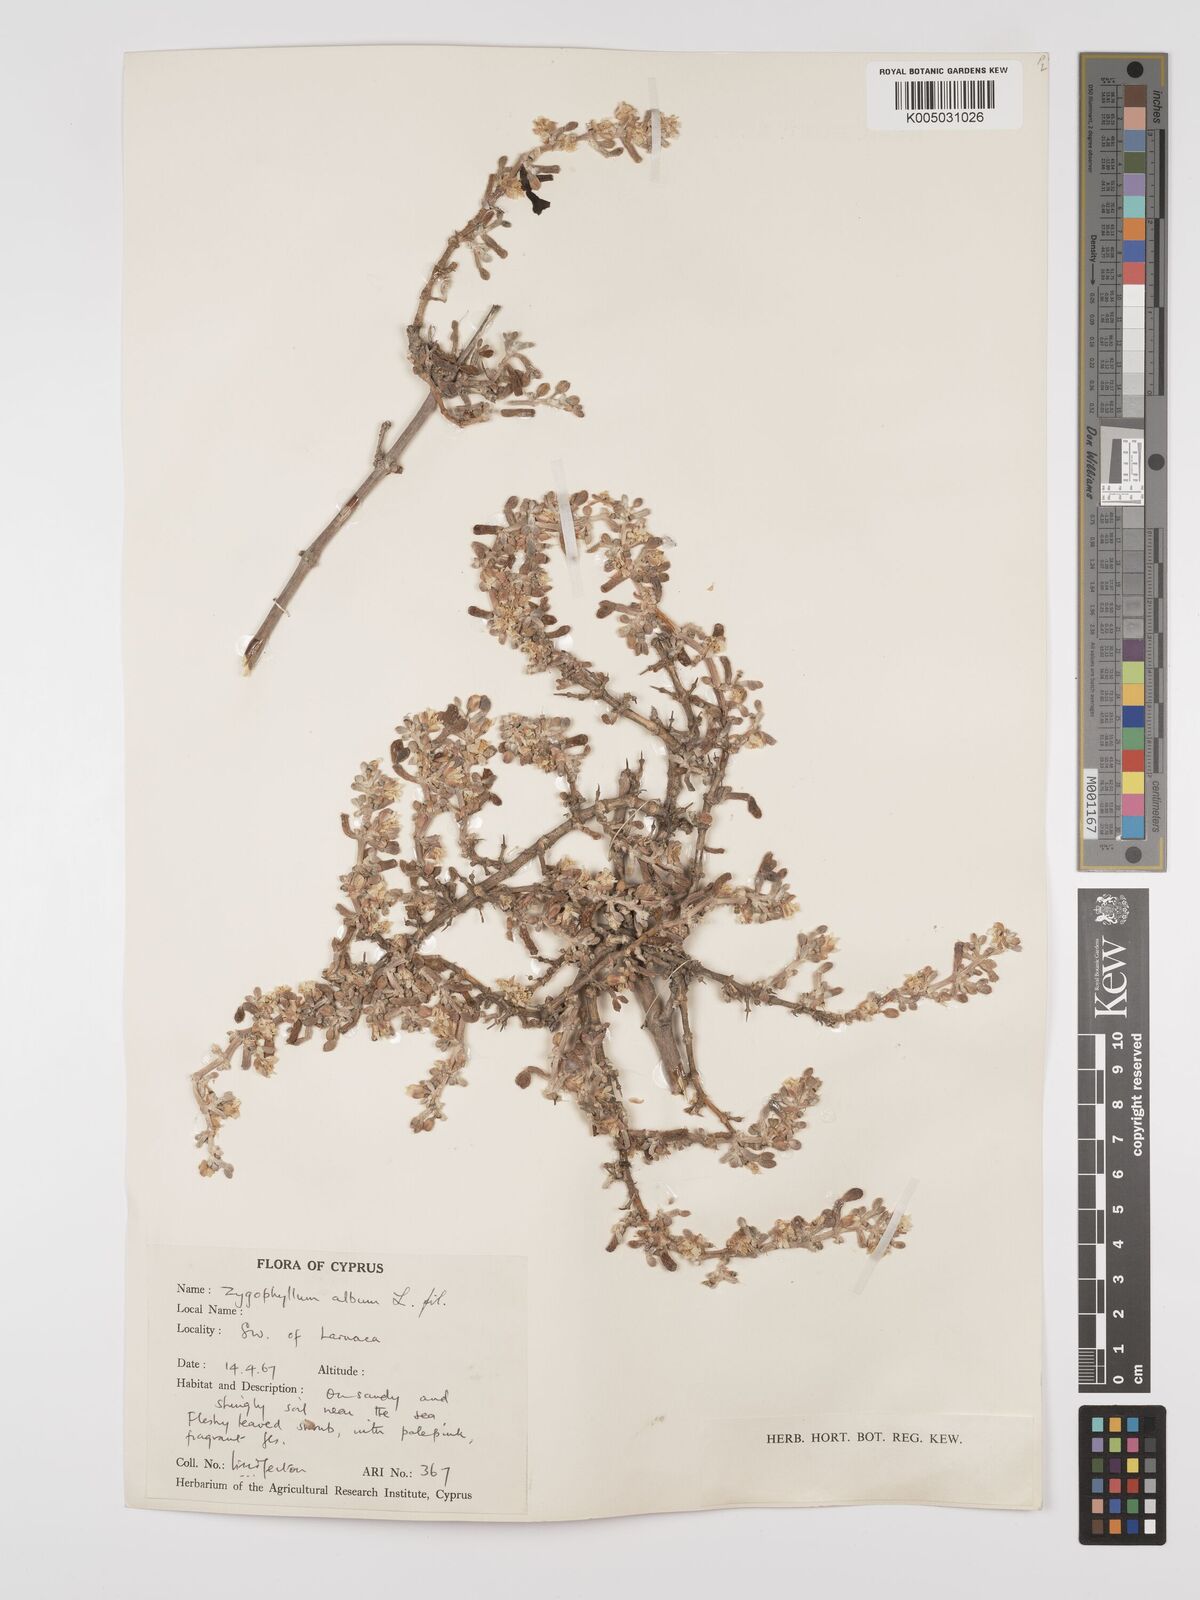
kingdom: Plantae
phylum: Tracheophyta
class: Magnoliopsida
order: Zygophyllales
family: Zygophyllaceae
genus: Zygophyllum
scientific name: Zygophyllum
